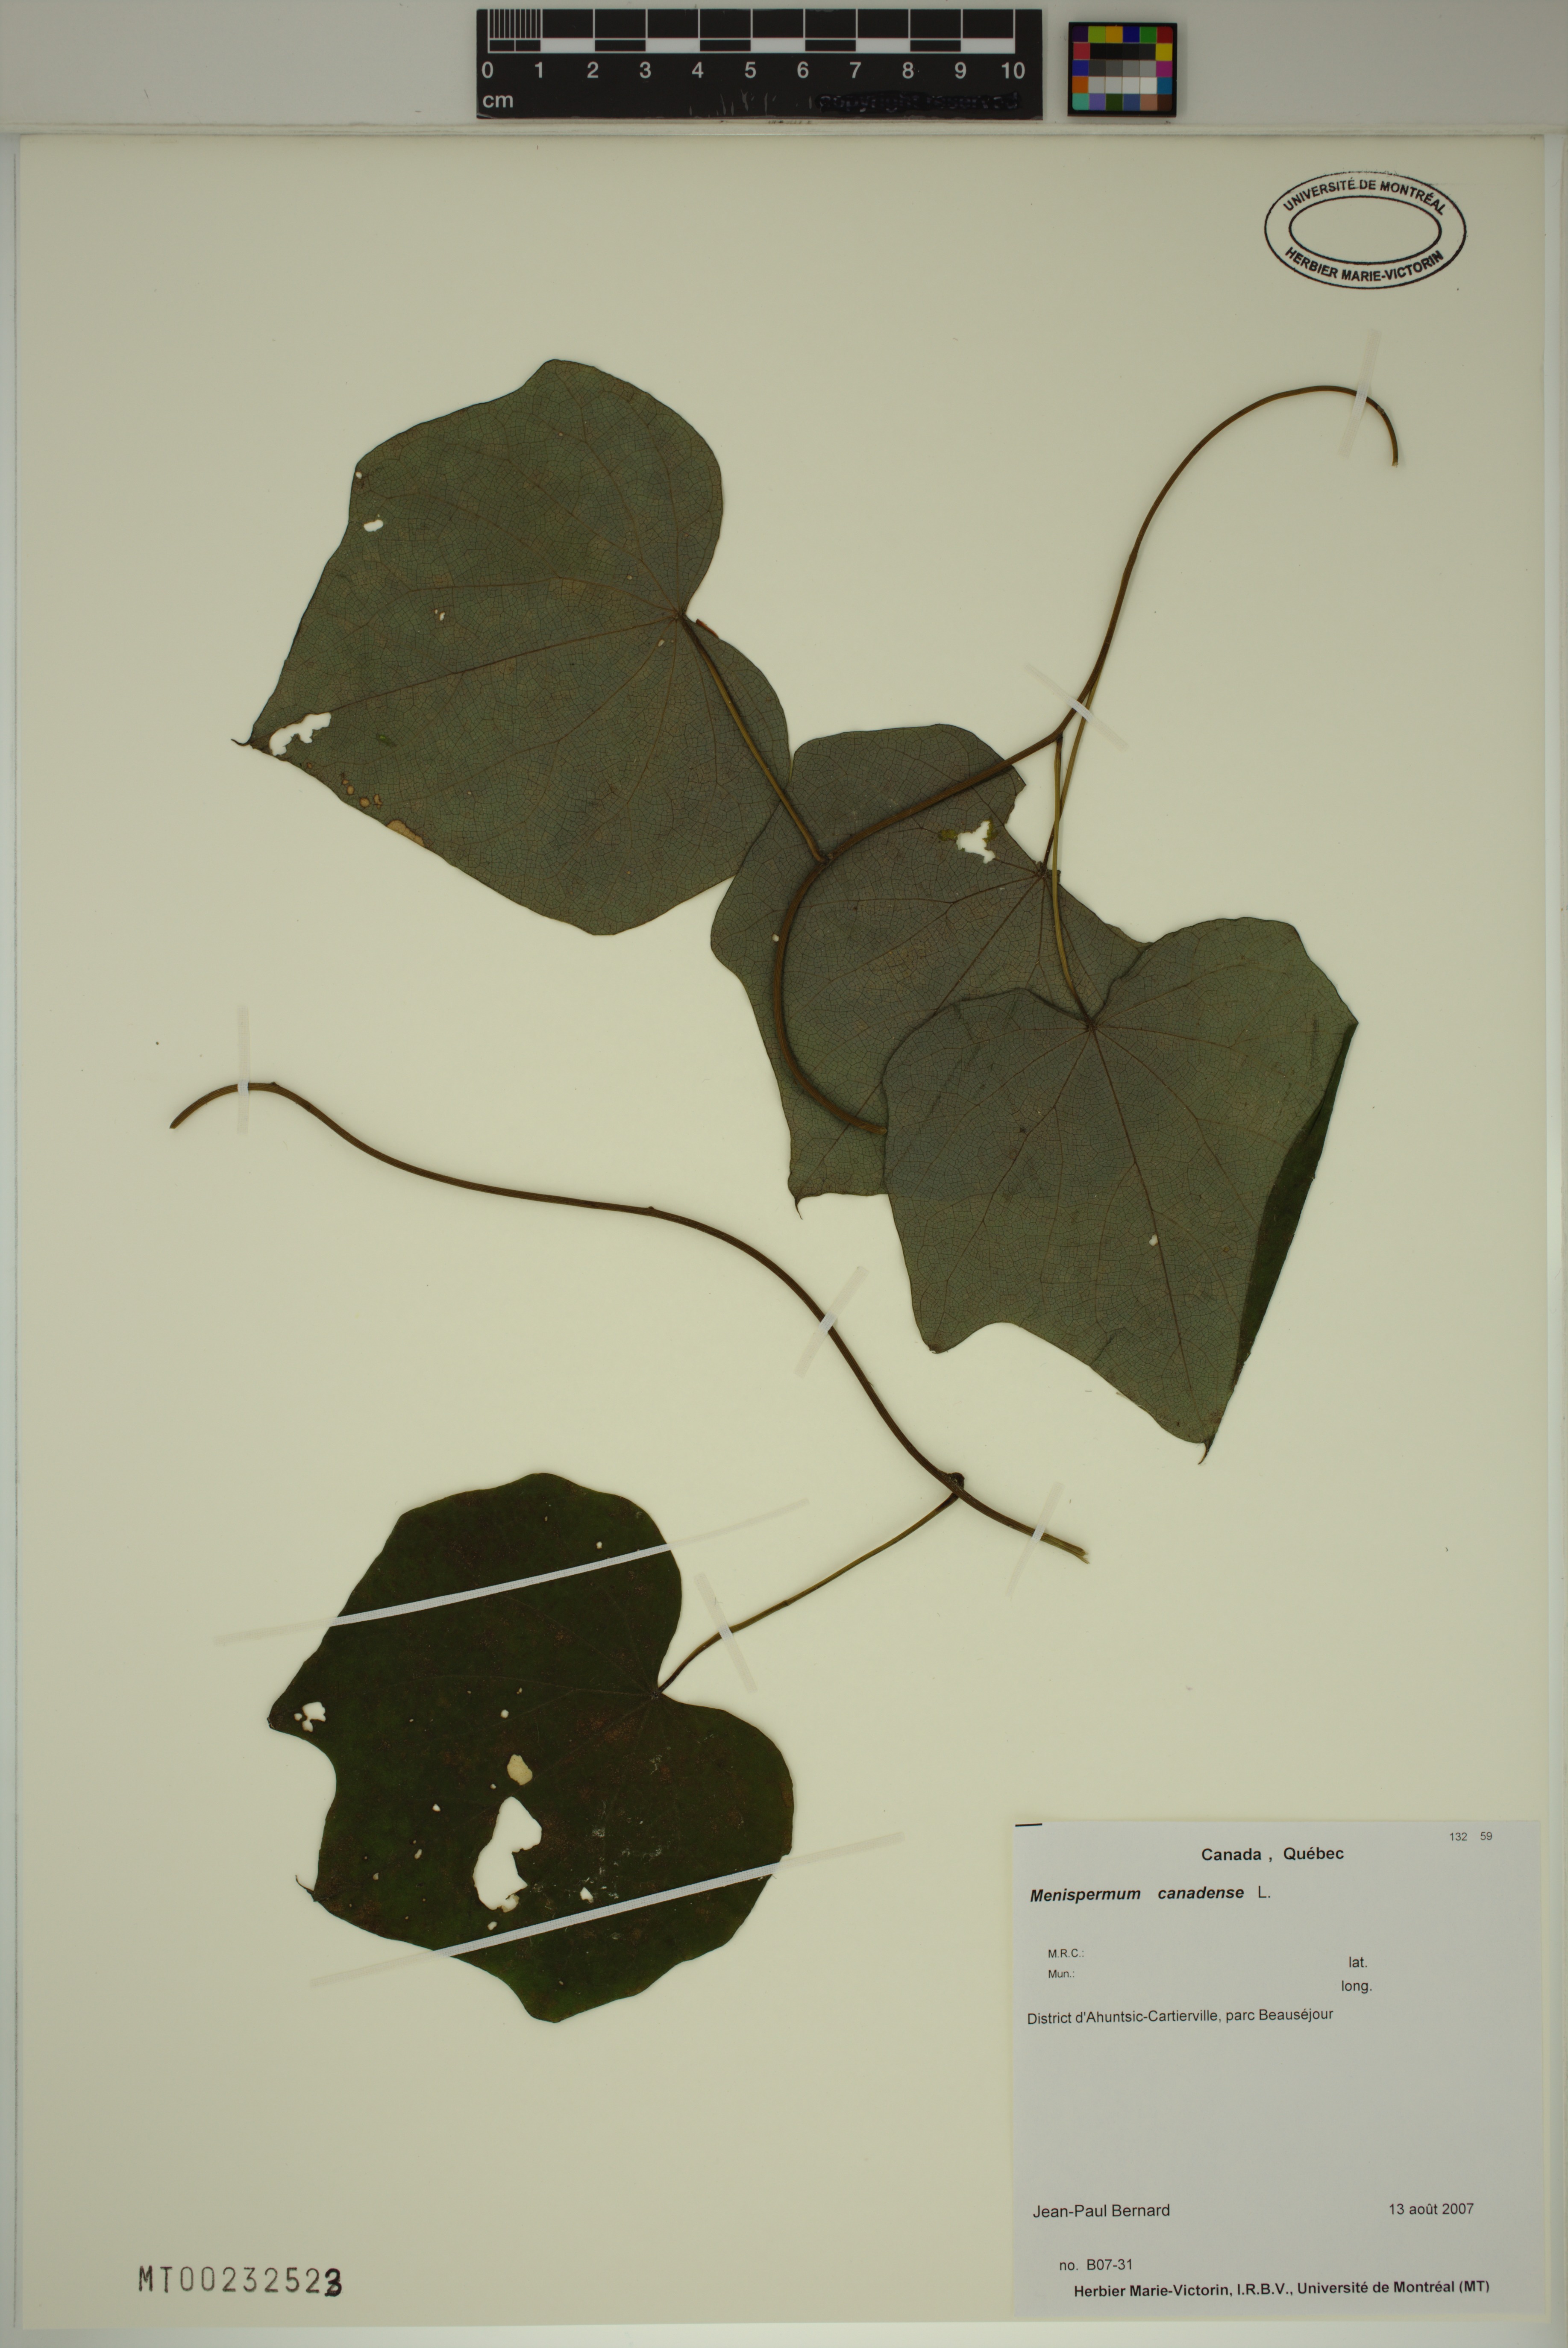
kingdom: Plantae
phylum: Tracheophyta
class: Magnoliopsida
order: Ranunculales
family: Menispermaceae
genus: Menispermum
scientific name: Menispermum canadense
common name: Moonseed
